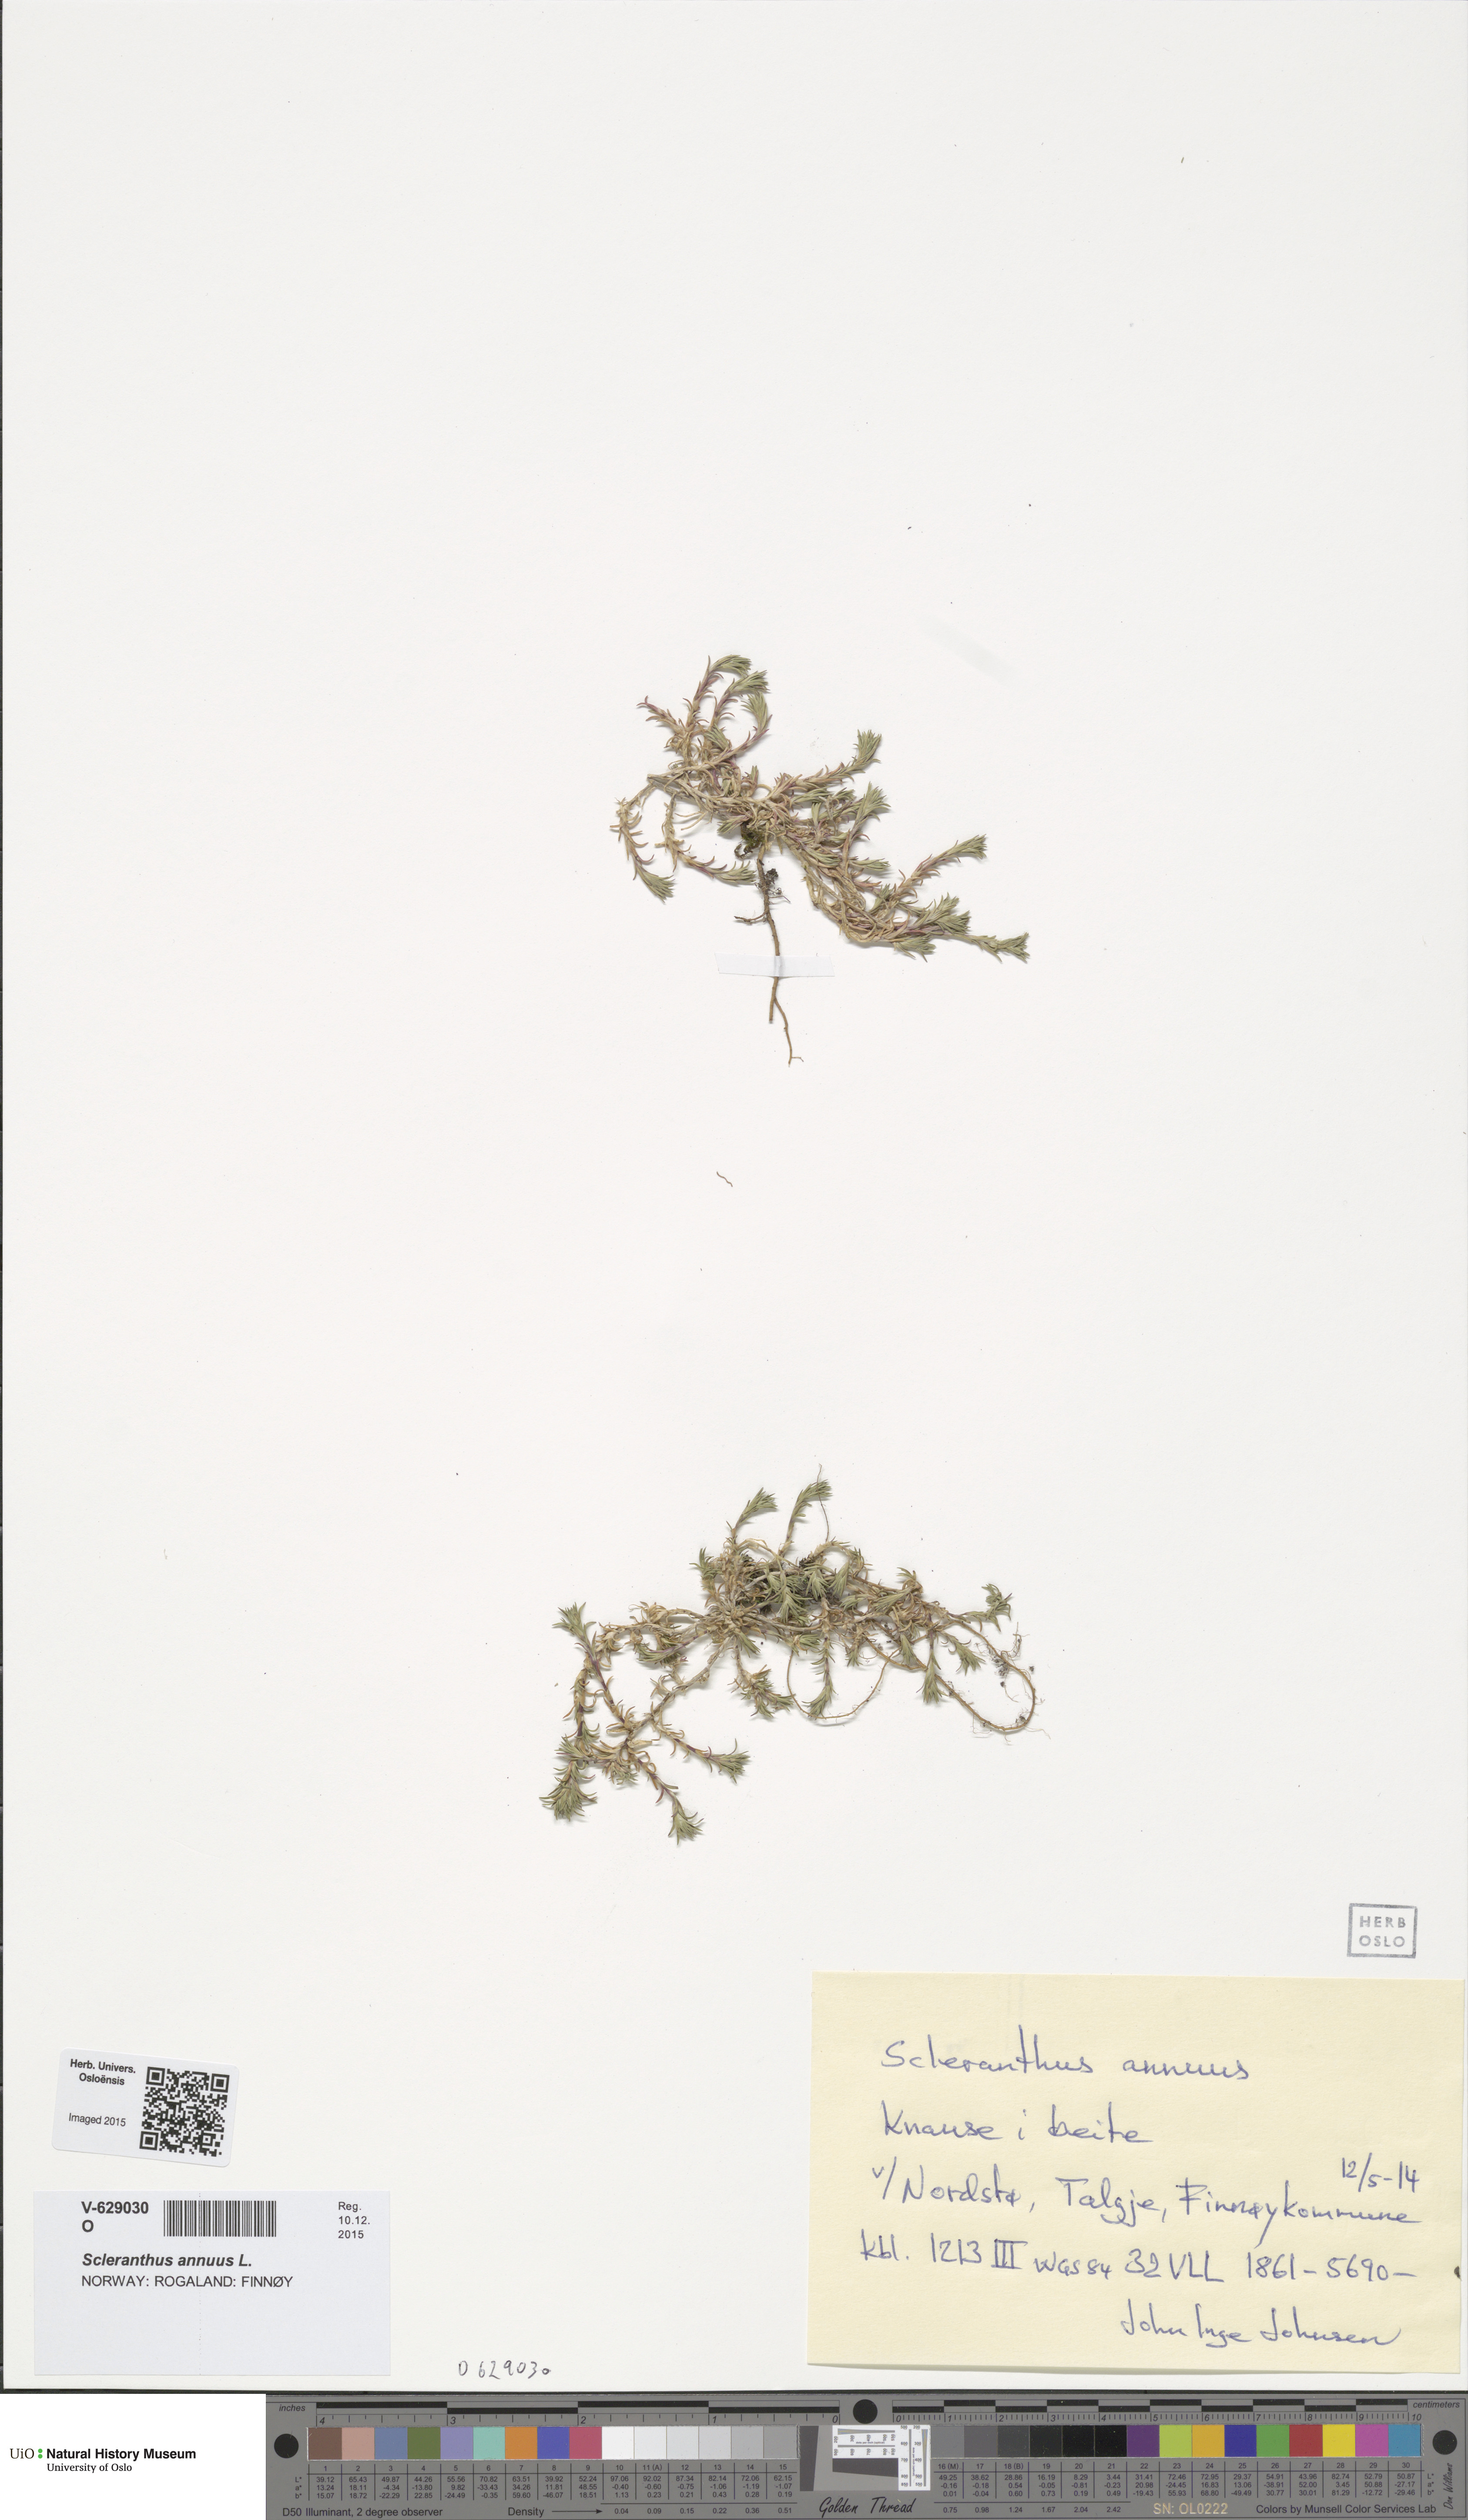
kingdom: Plantae
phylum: Tracheophyta
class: Magnoliopsida
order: Caryophyllales
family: Caryophyllaceae
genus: Scleranthus
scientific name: Scleranthus annuus
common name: Annual knawel
